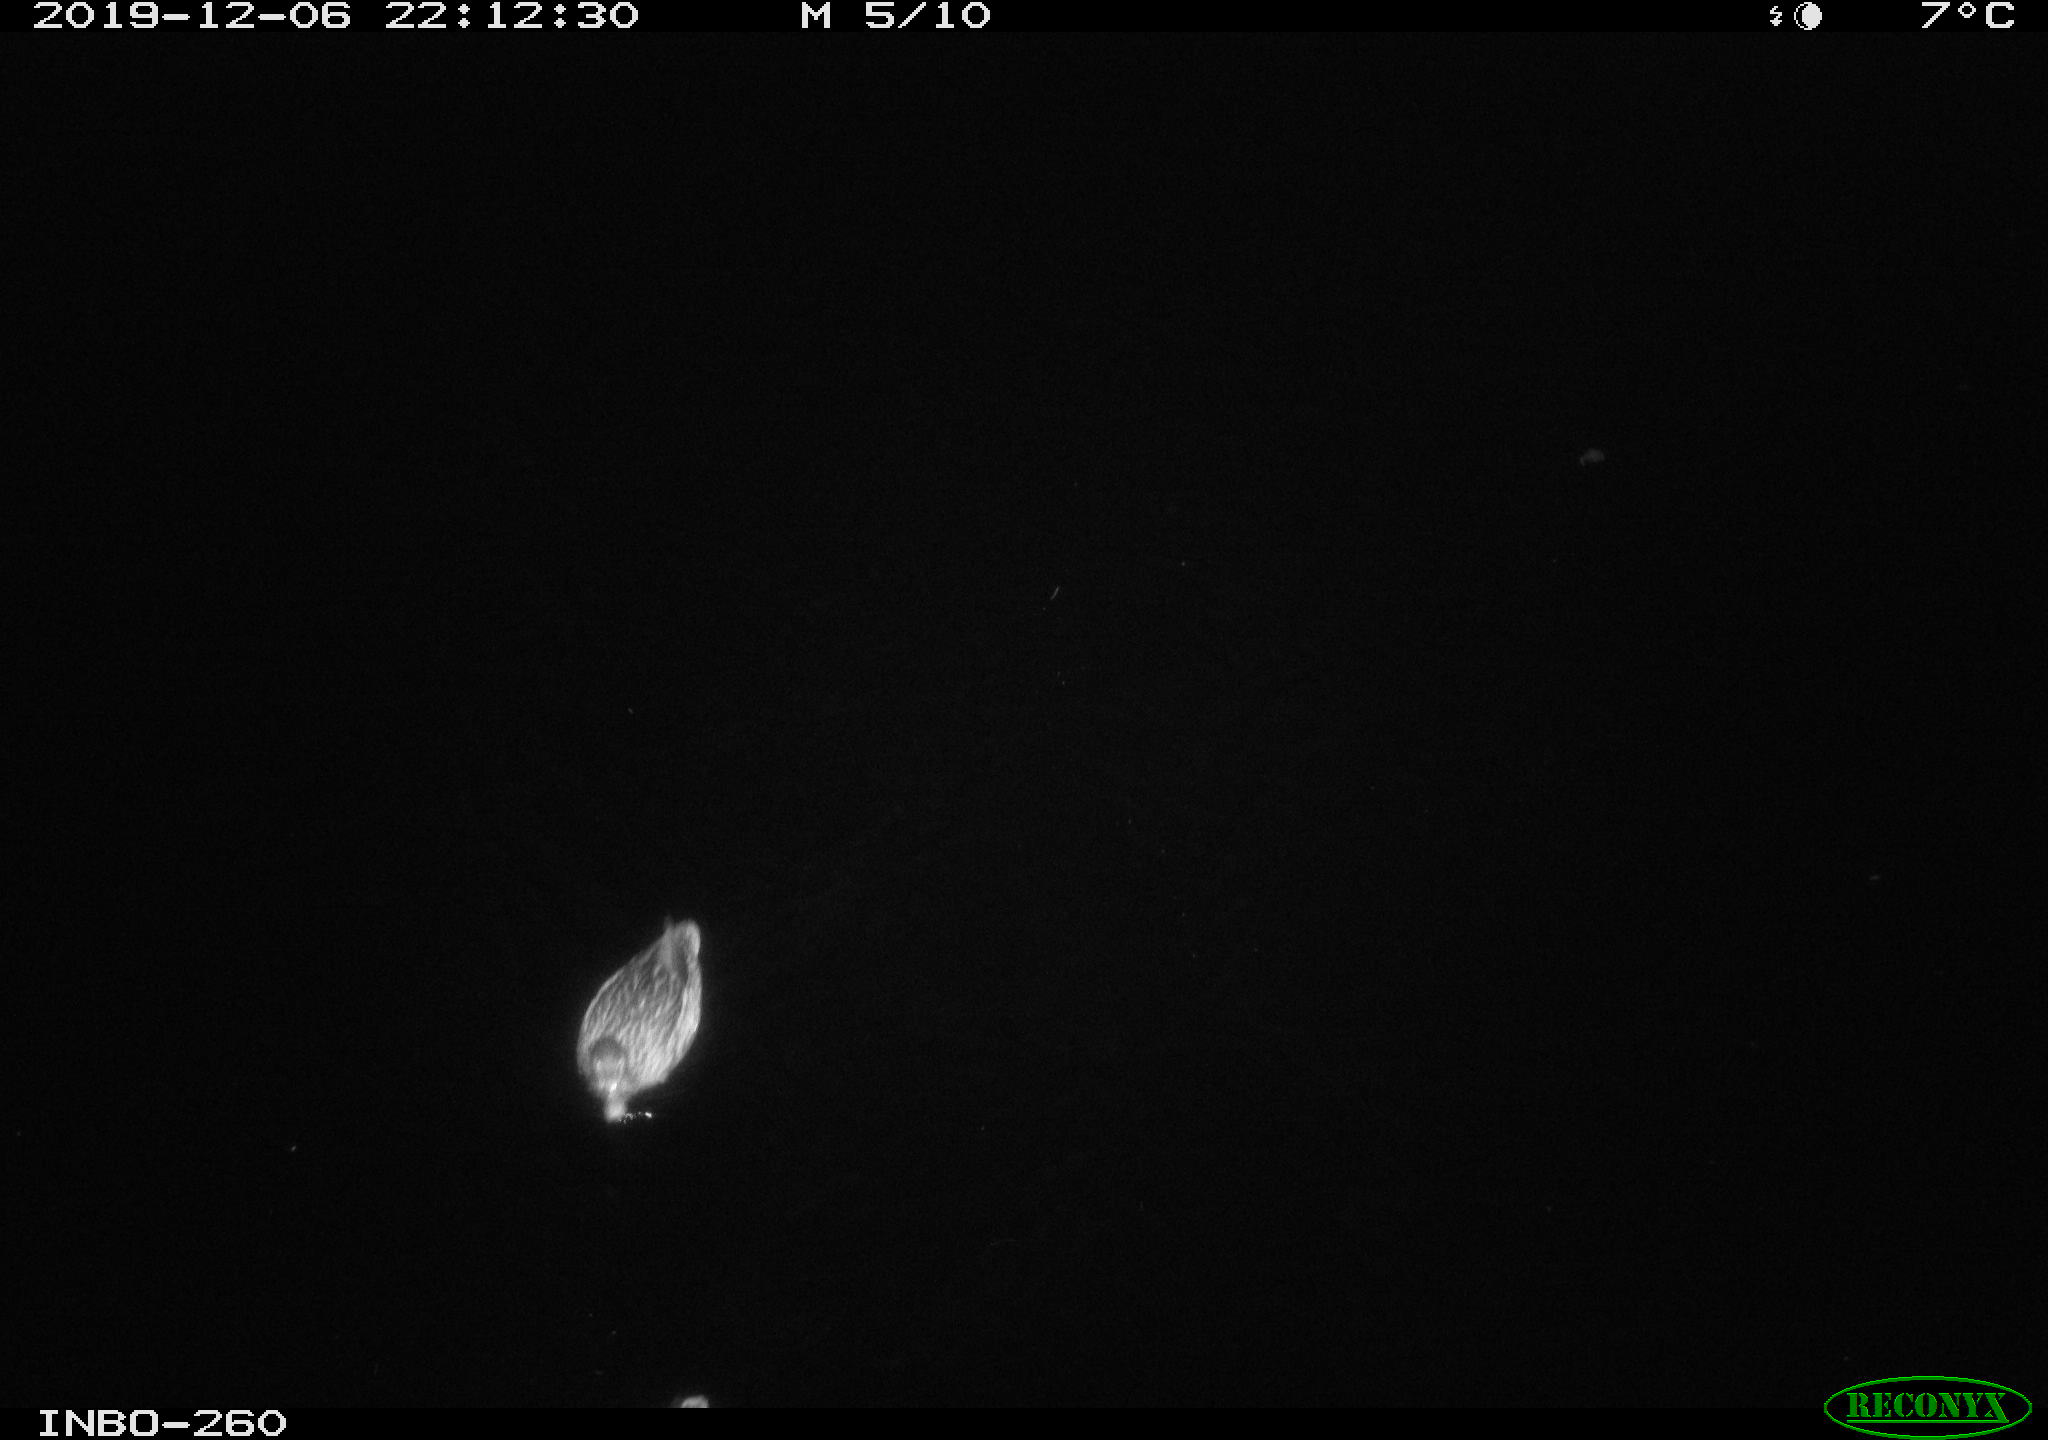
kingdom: Animalia
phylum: Chordata
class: Aves
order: Anseriformes
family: Anatidae
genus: Anas
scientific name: Anas platyrhynchos
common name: Mallard
